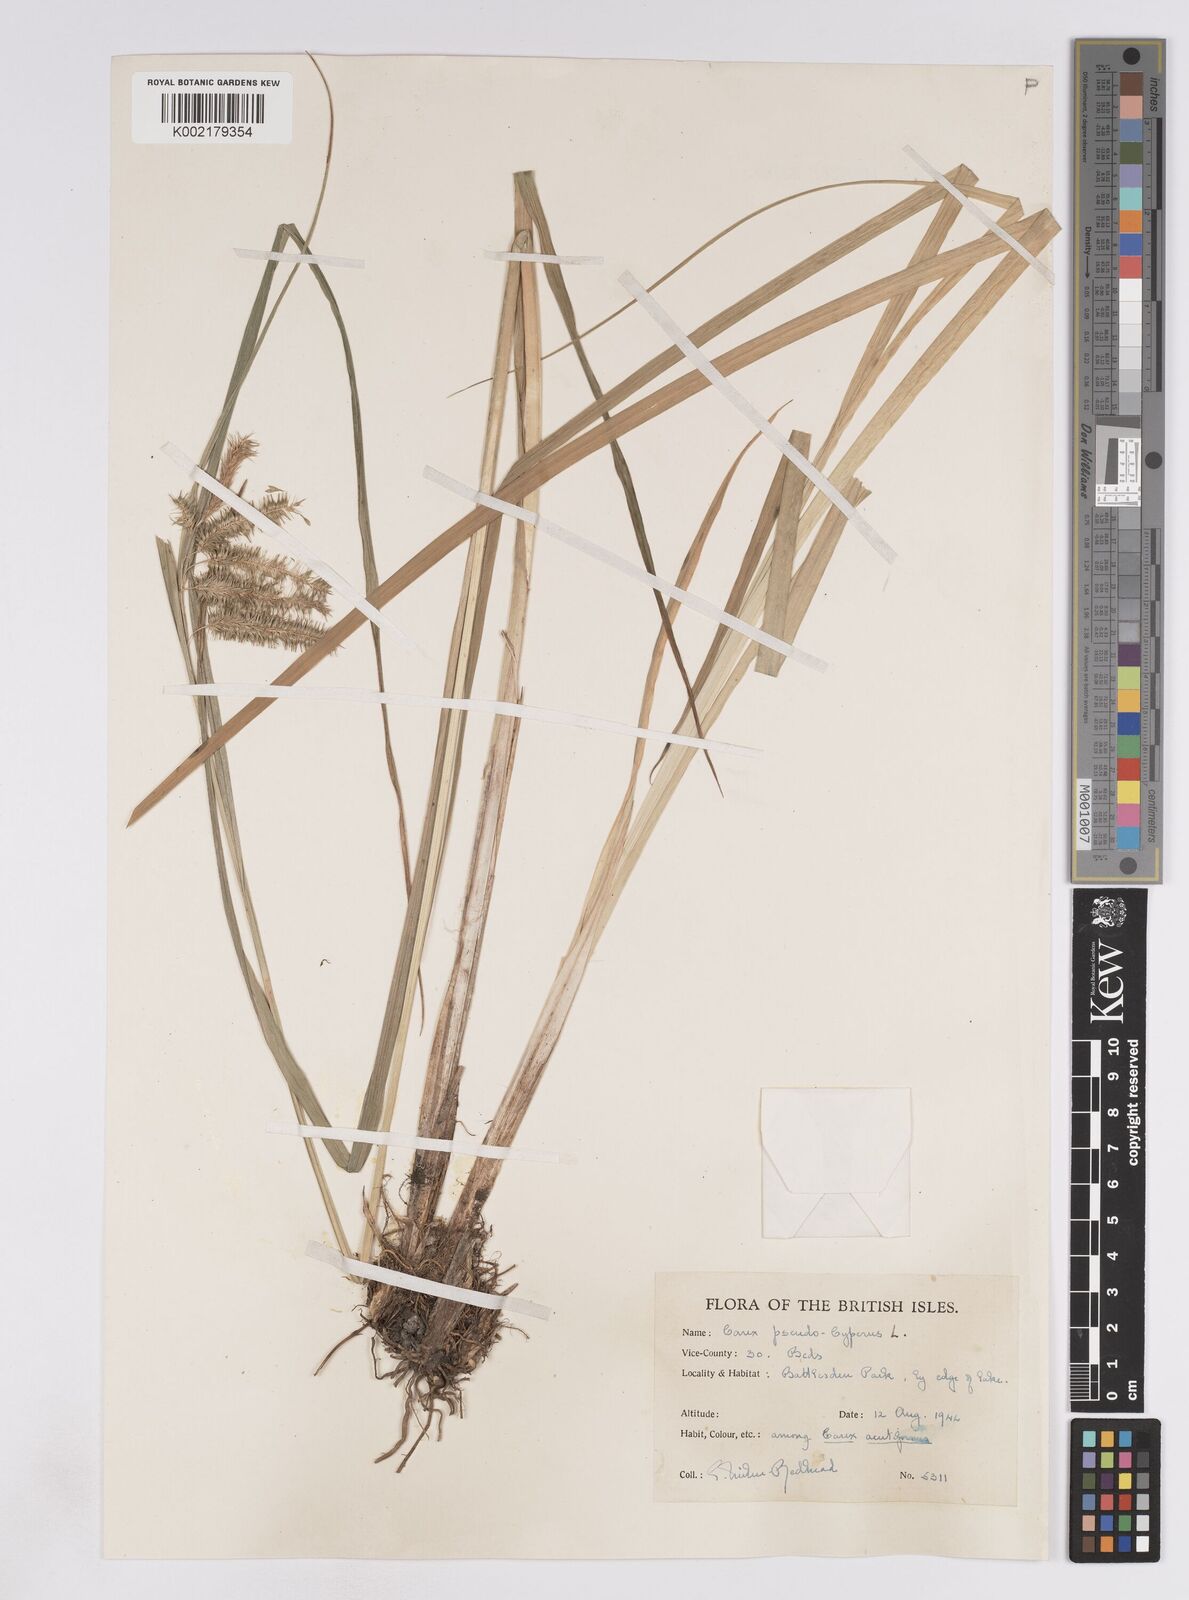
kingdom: Plantae
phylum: Tracheophyta
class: Liliopsida
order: Poales
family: Cyperaceae
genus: Carex
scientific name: Carex pseudocyperus
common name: Cyperus sedge
